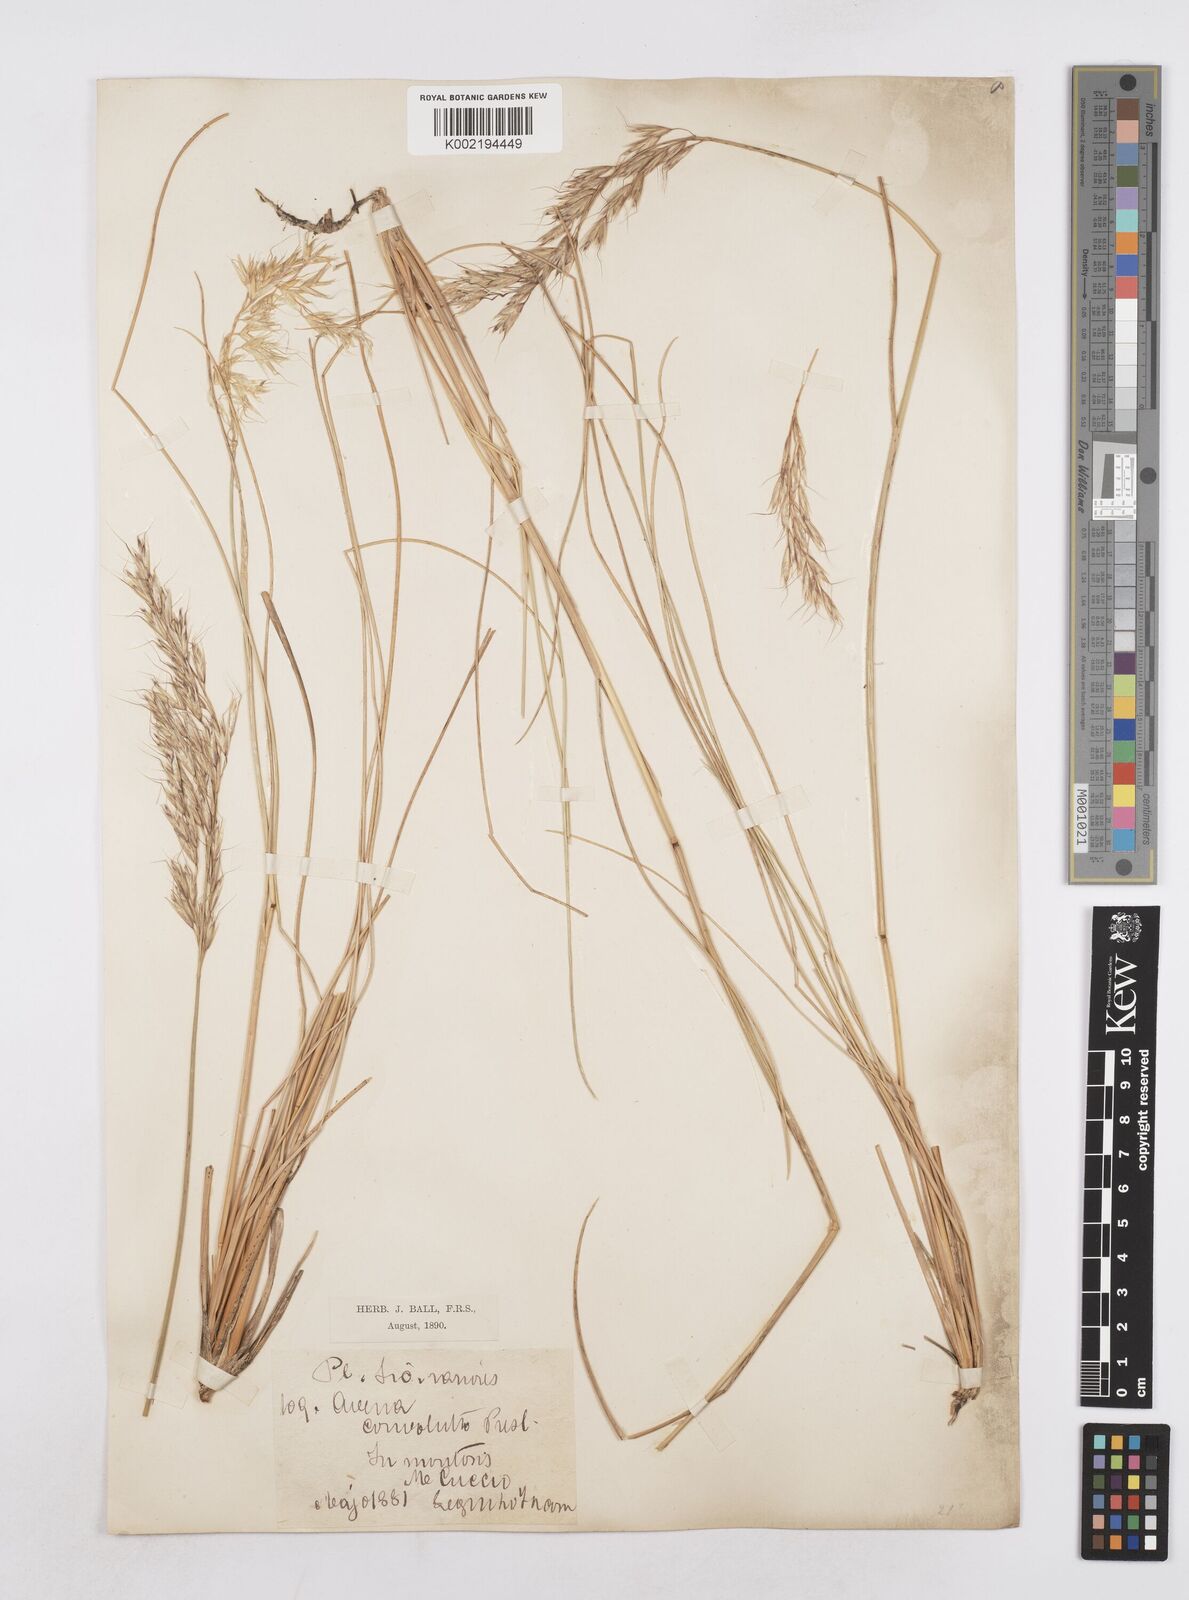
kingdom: Plantae
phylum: Tracheophyta
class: Liliopsida
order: Poales
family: Poaceae
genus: Helictotrichon
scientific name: Helictotrichon convolutum
